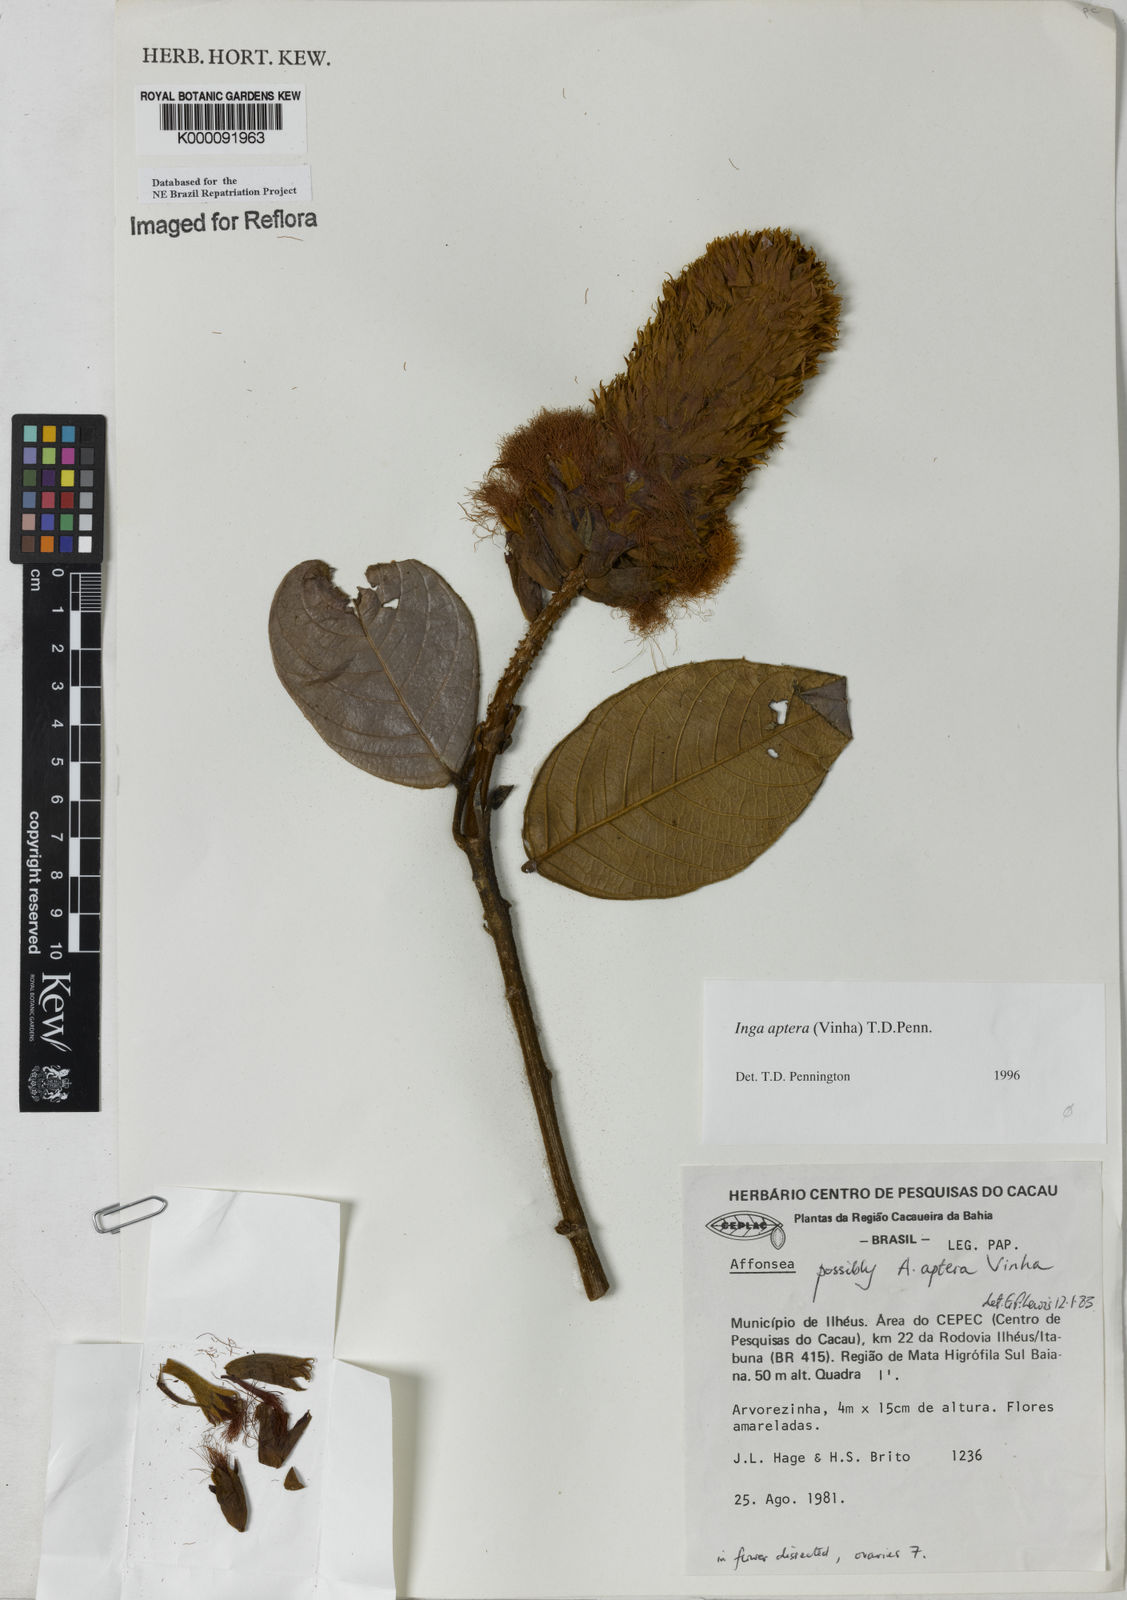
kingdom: Plantae
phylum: Tracheophyta
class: Magnoliopsida
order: Fabales
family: Fabaceae
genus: Inga
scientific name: Inga aptera
